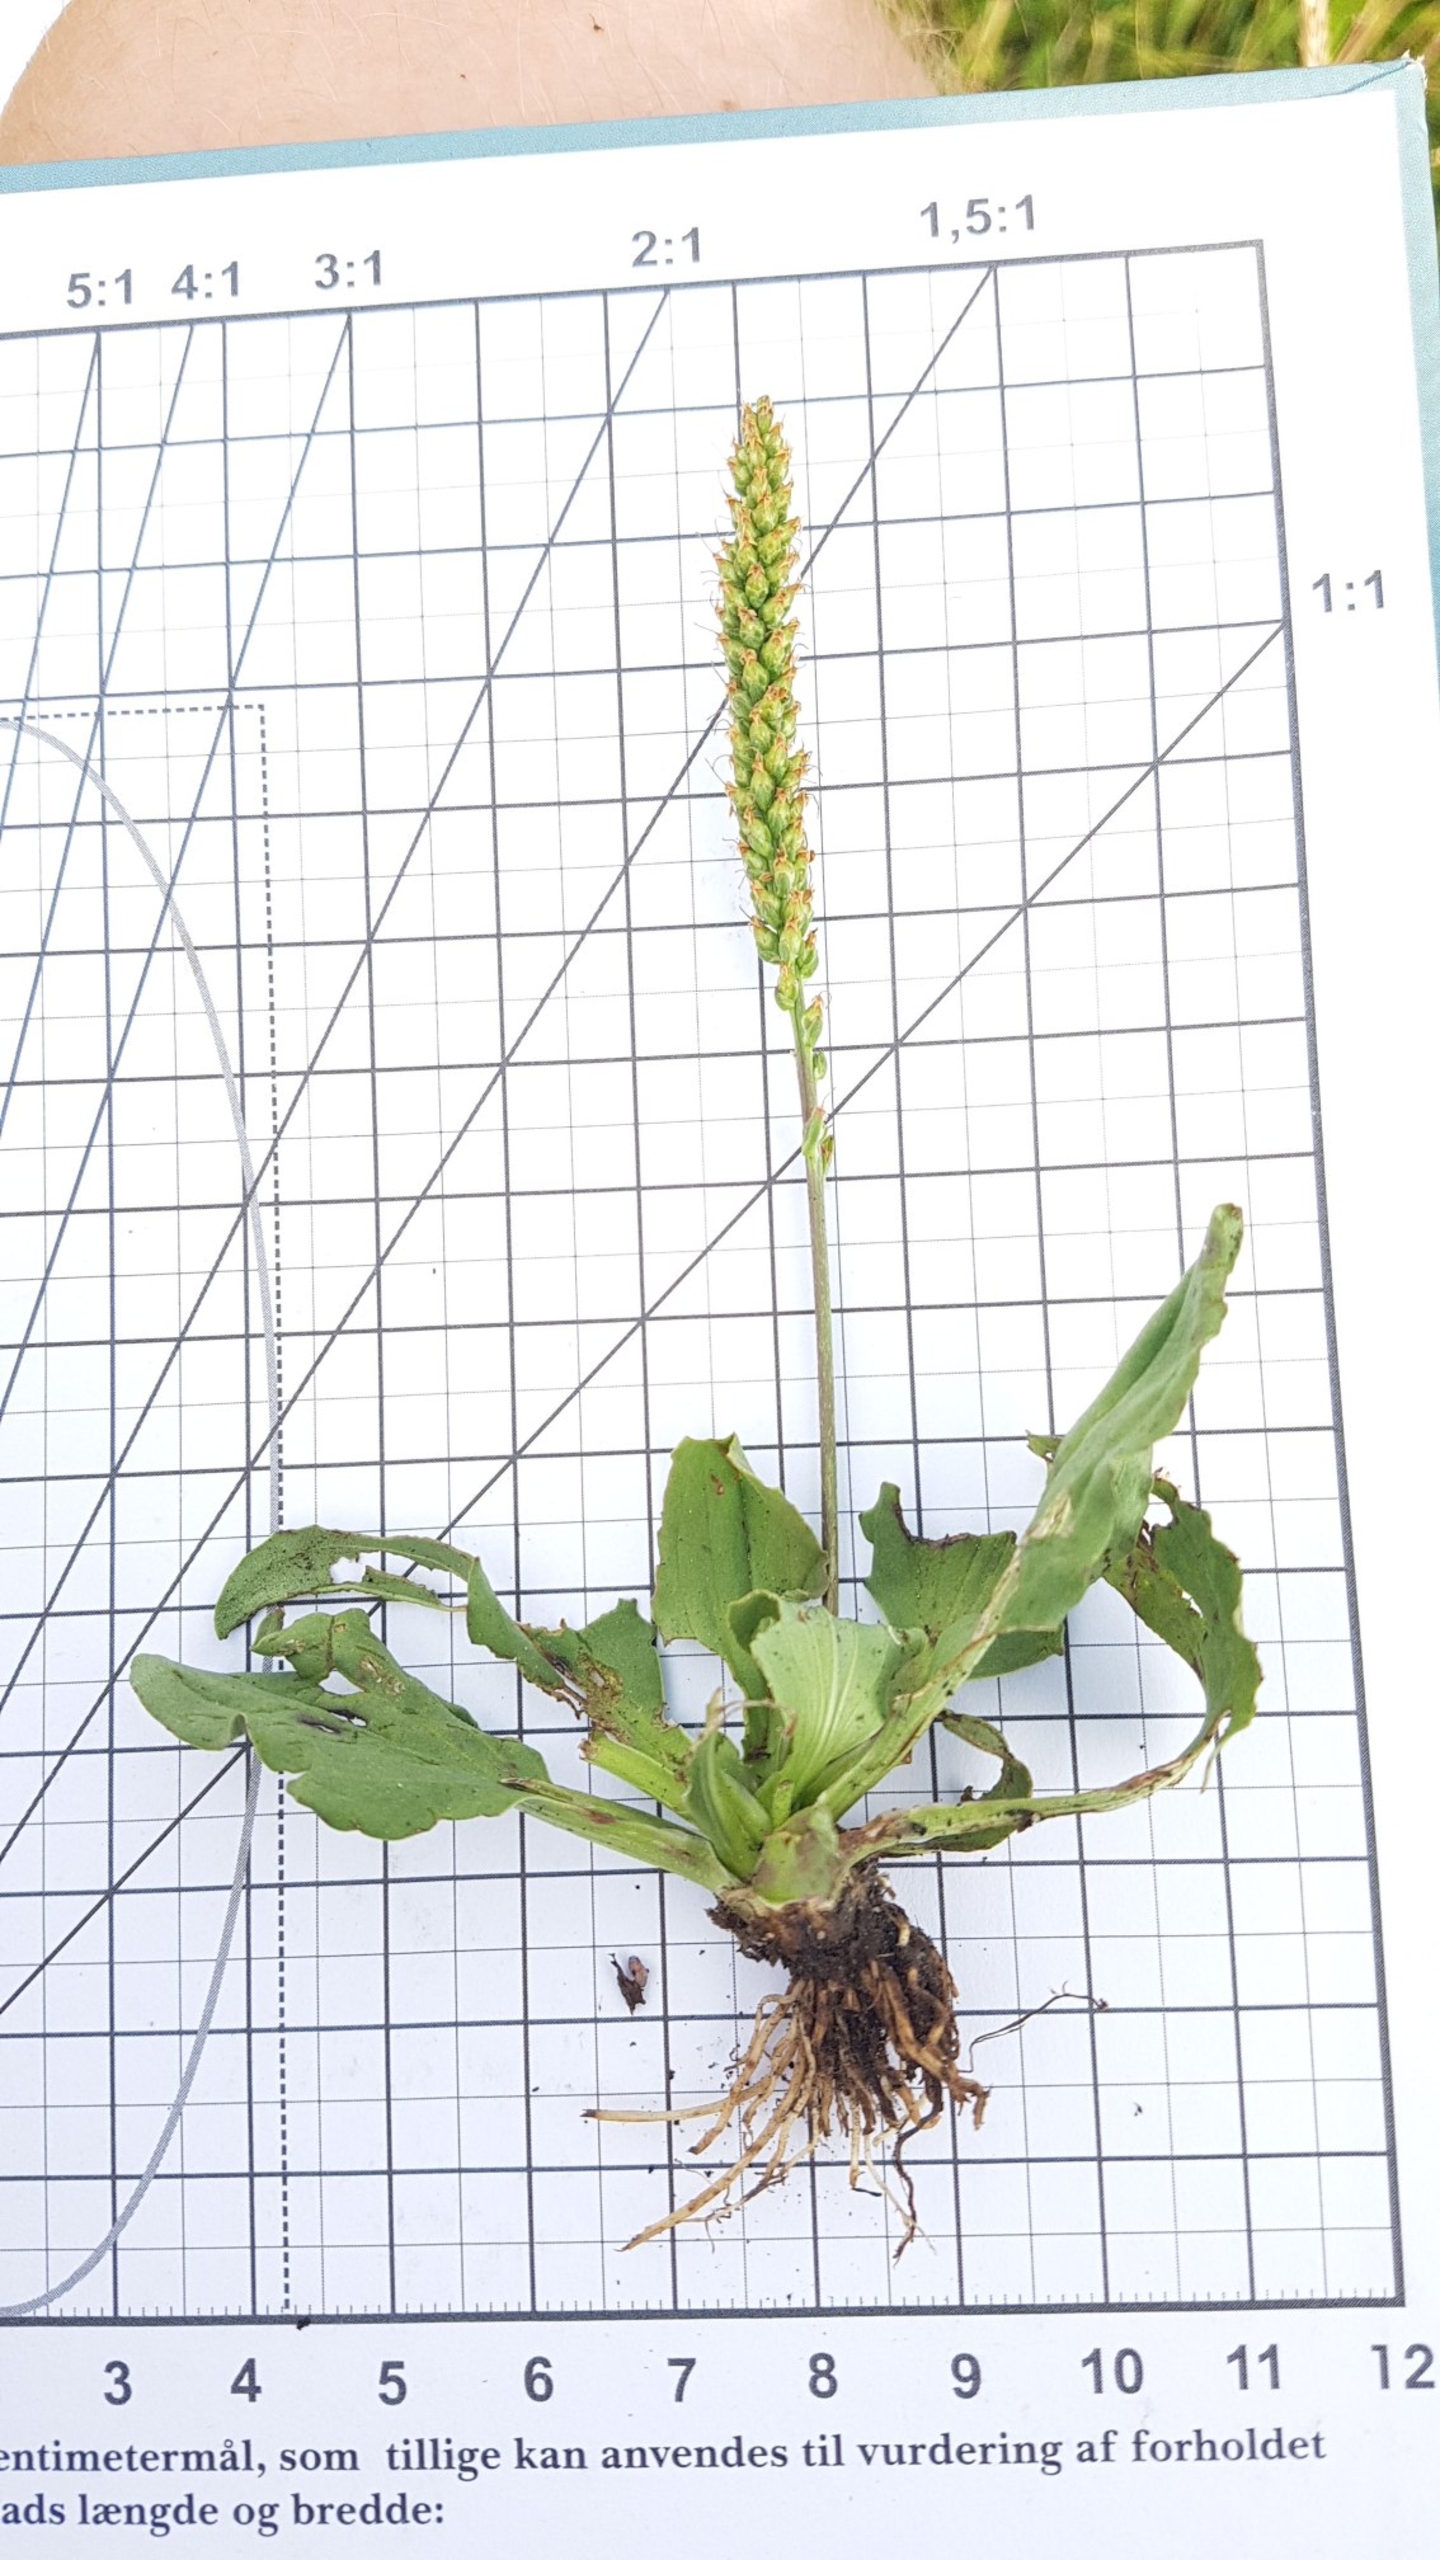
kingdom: Plantae
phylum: Tracheophyta
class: Magnoliopsida
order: Lamiales
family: Plantaginaceae
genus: Plantago
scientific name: Plantago major
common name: Glat vejbred
